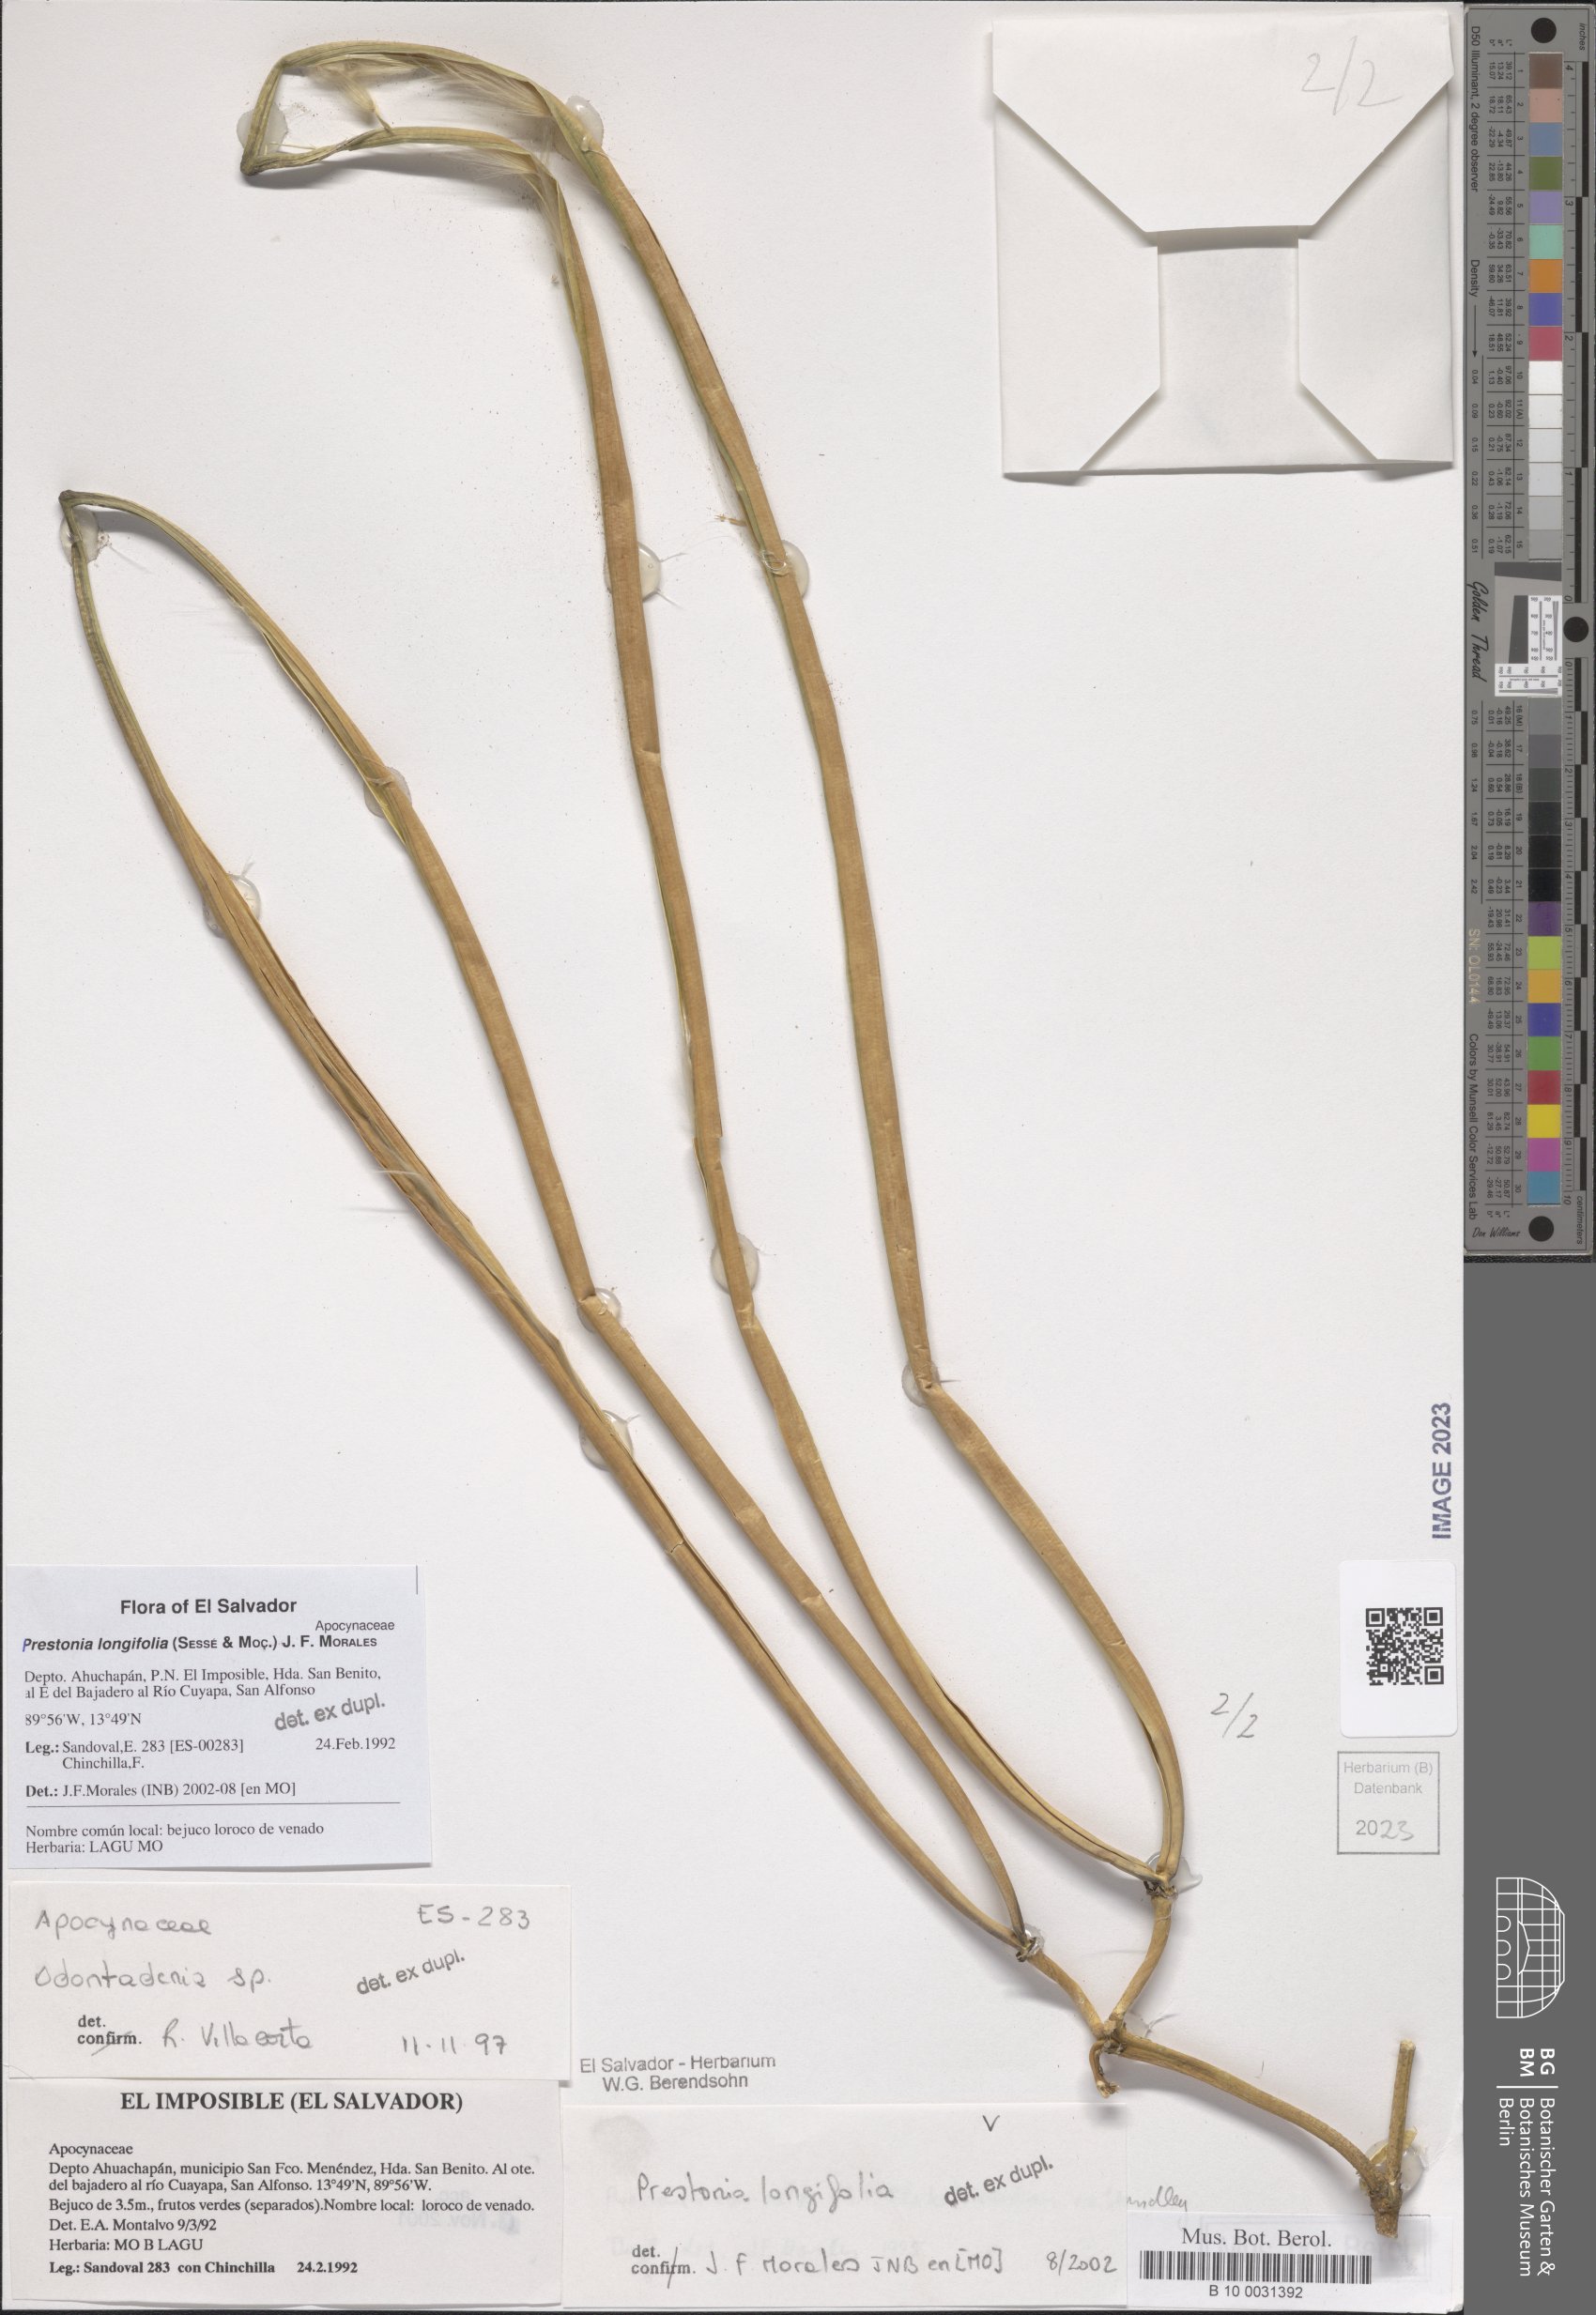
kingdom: Plantae
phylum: Tracheophyta
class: Magnoliopsida
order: Gentianales
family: Apocynaceae
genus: Prestonia
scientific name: Prestonia longifolia
